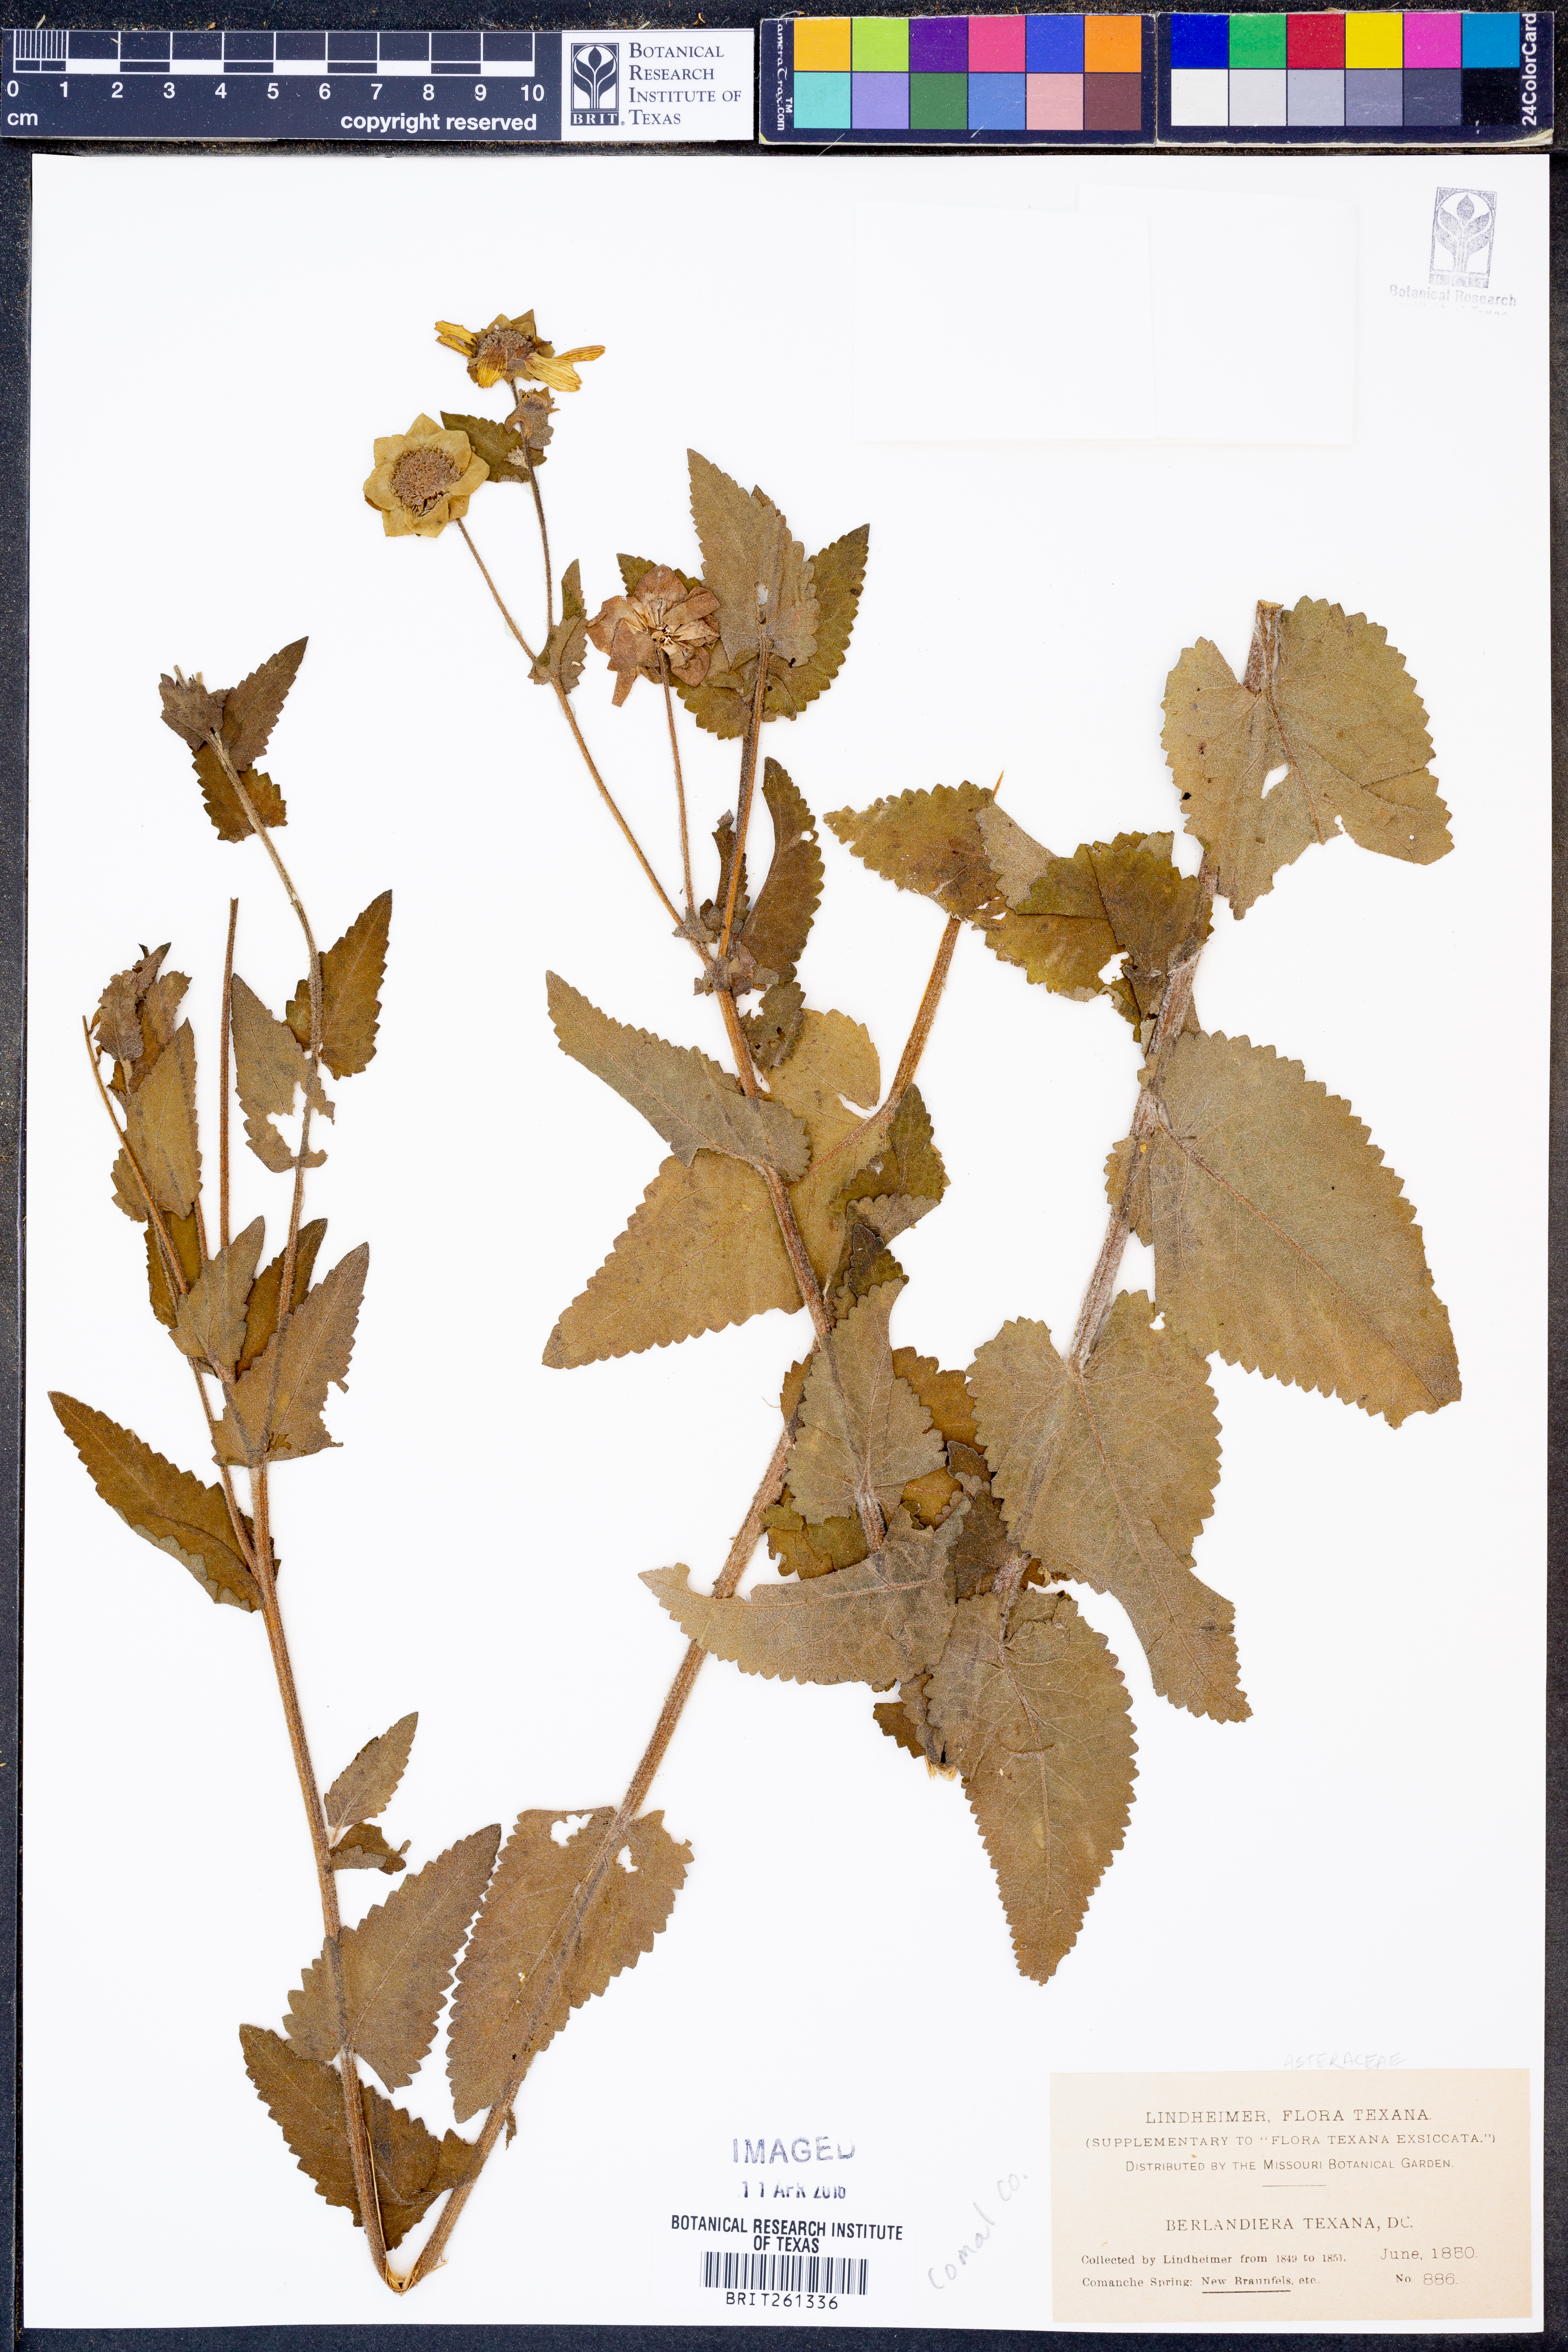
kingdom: Plantae
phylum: Tracheophyta
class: Magnoliopsida
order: Asterales
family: Asteraceae
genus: Berlandiera
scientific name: Berlandiera texana
